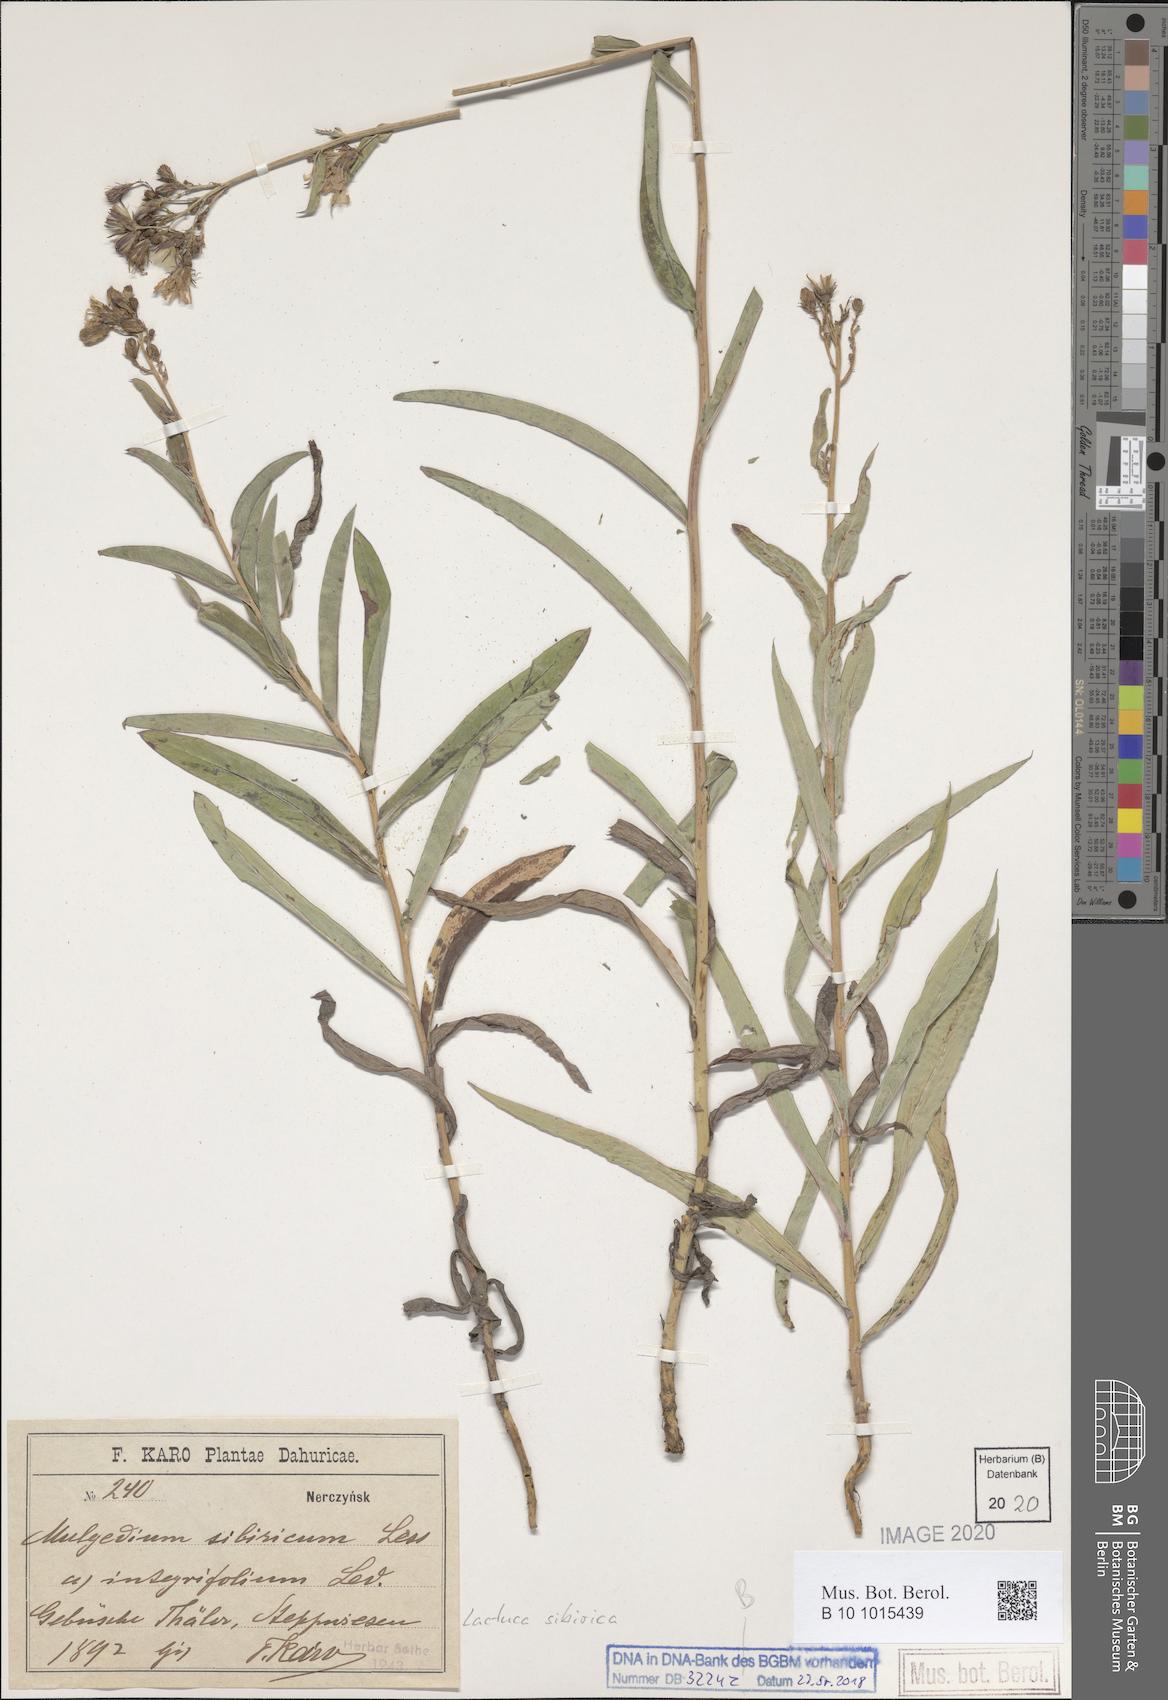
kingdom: Plantae
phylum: Tracheophyta
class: Magnoliopsida
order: Asterales
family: Asteraceae
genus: Lactuca
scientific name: Lactuca sibirica
